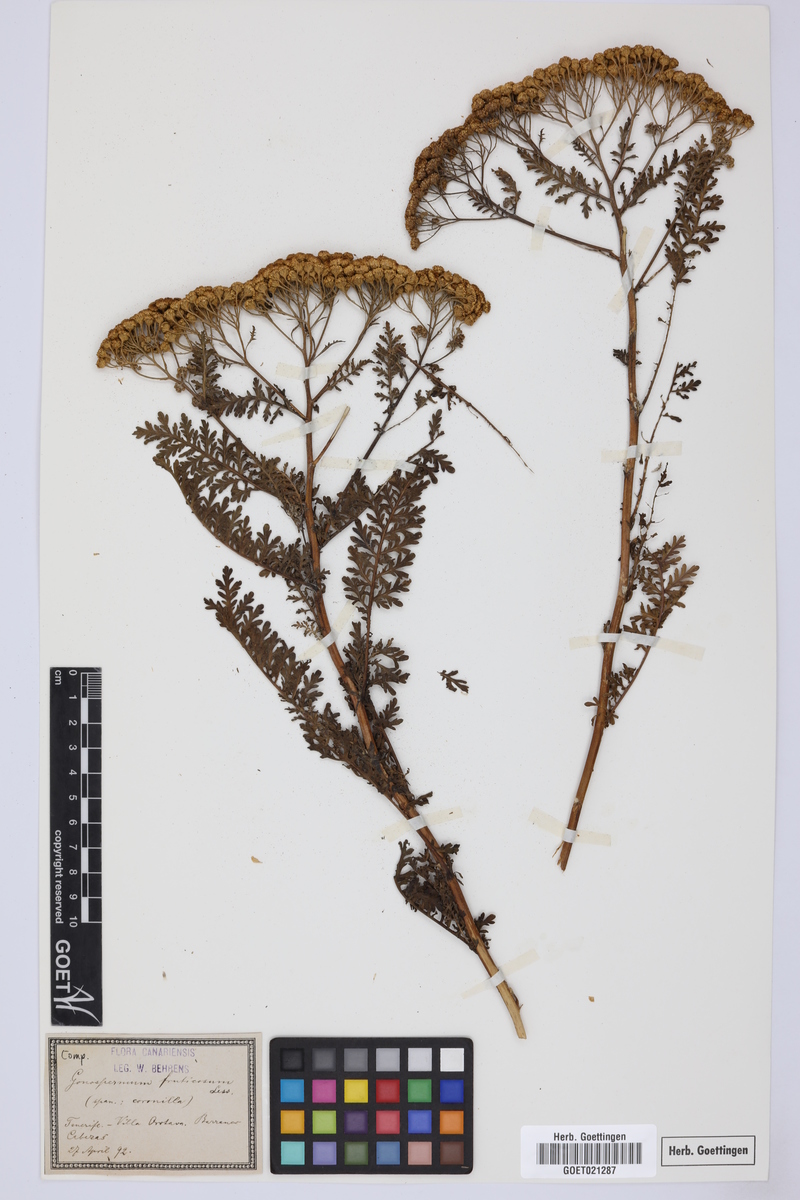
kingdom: Plantae
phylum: Tracheophyta
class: Magnoliopsida
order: Asterales
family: Asteraceae
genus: Gonospermum
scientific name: Gonospermum fruticosum
